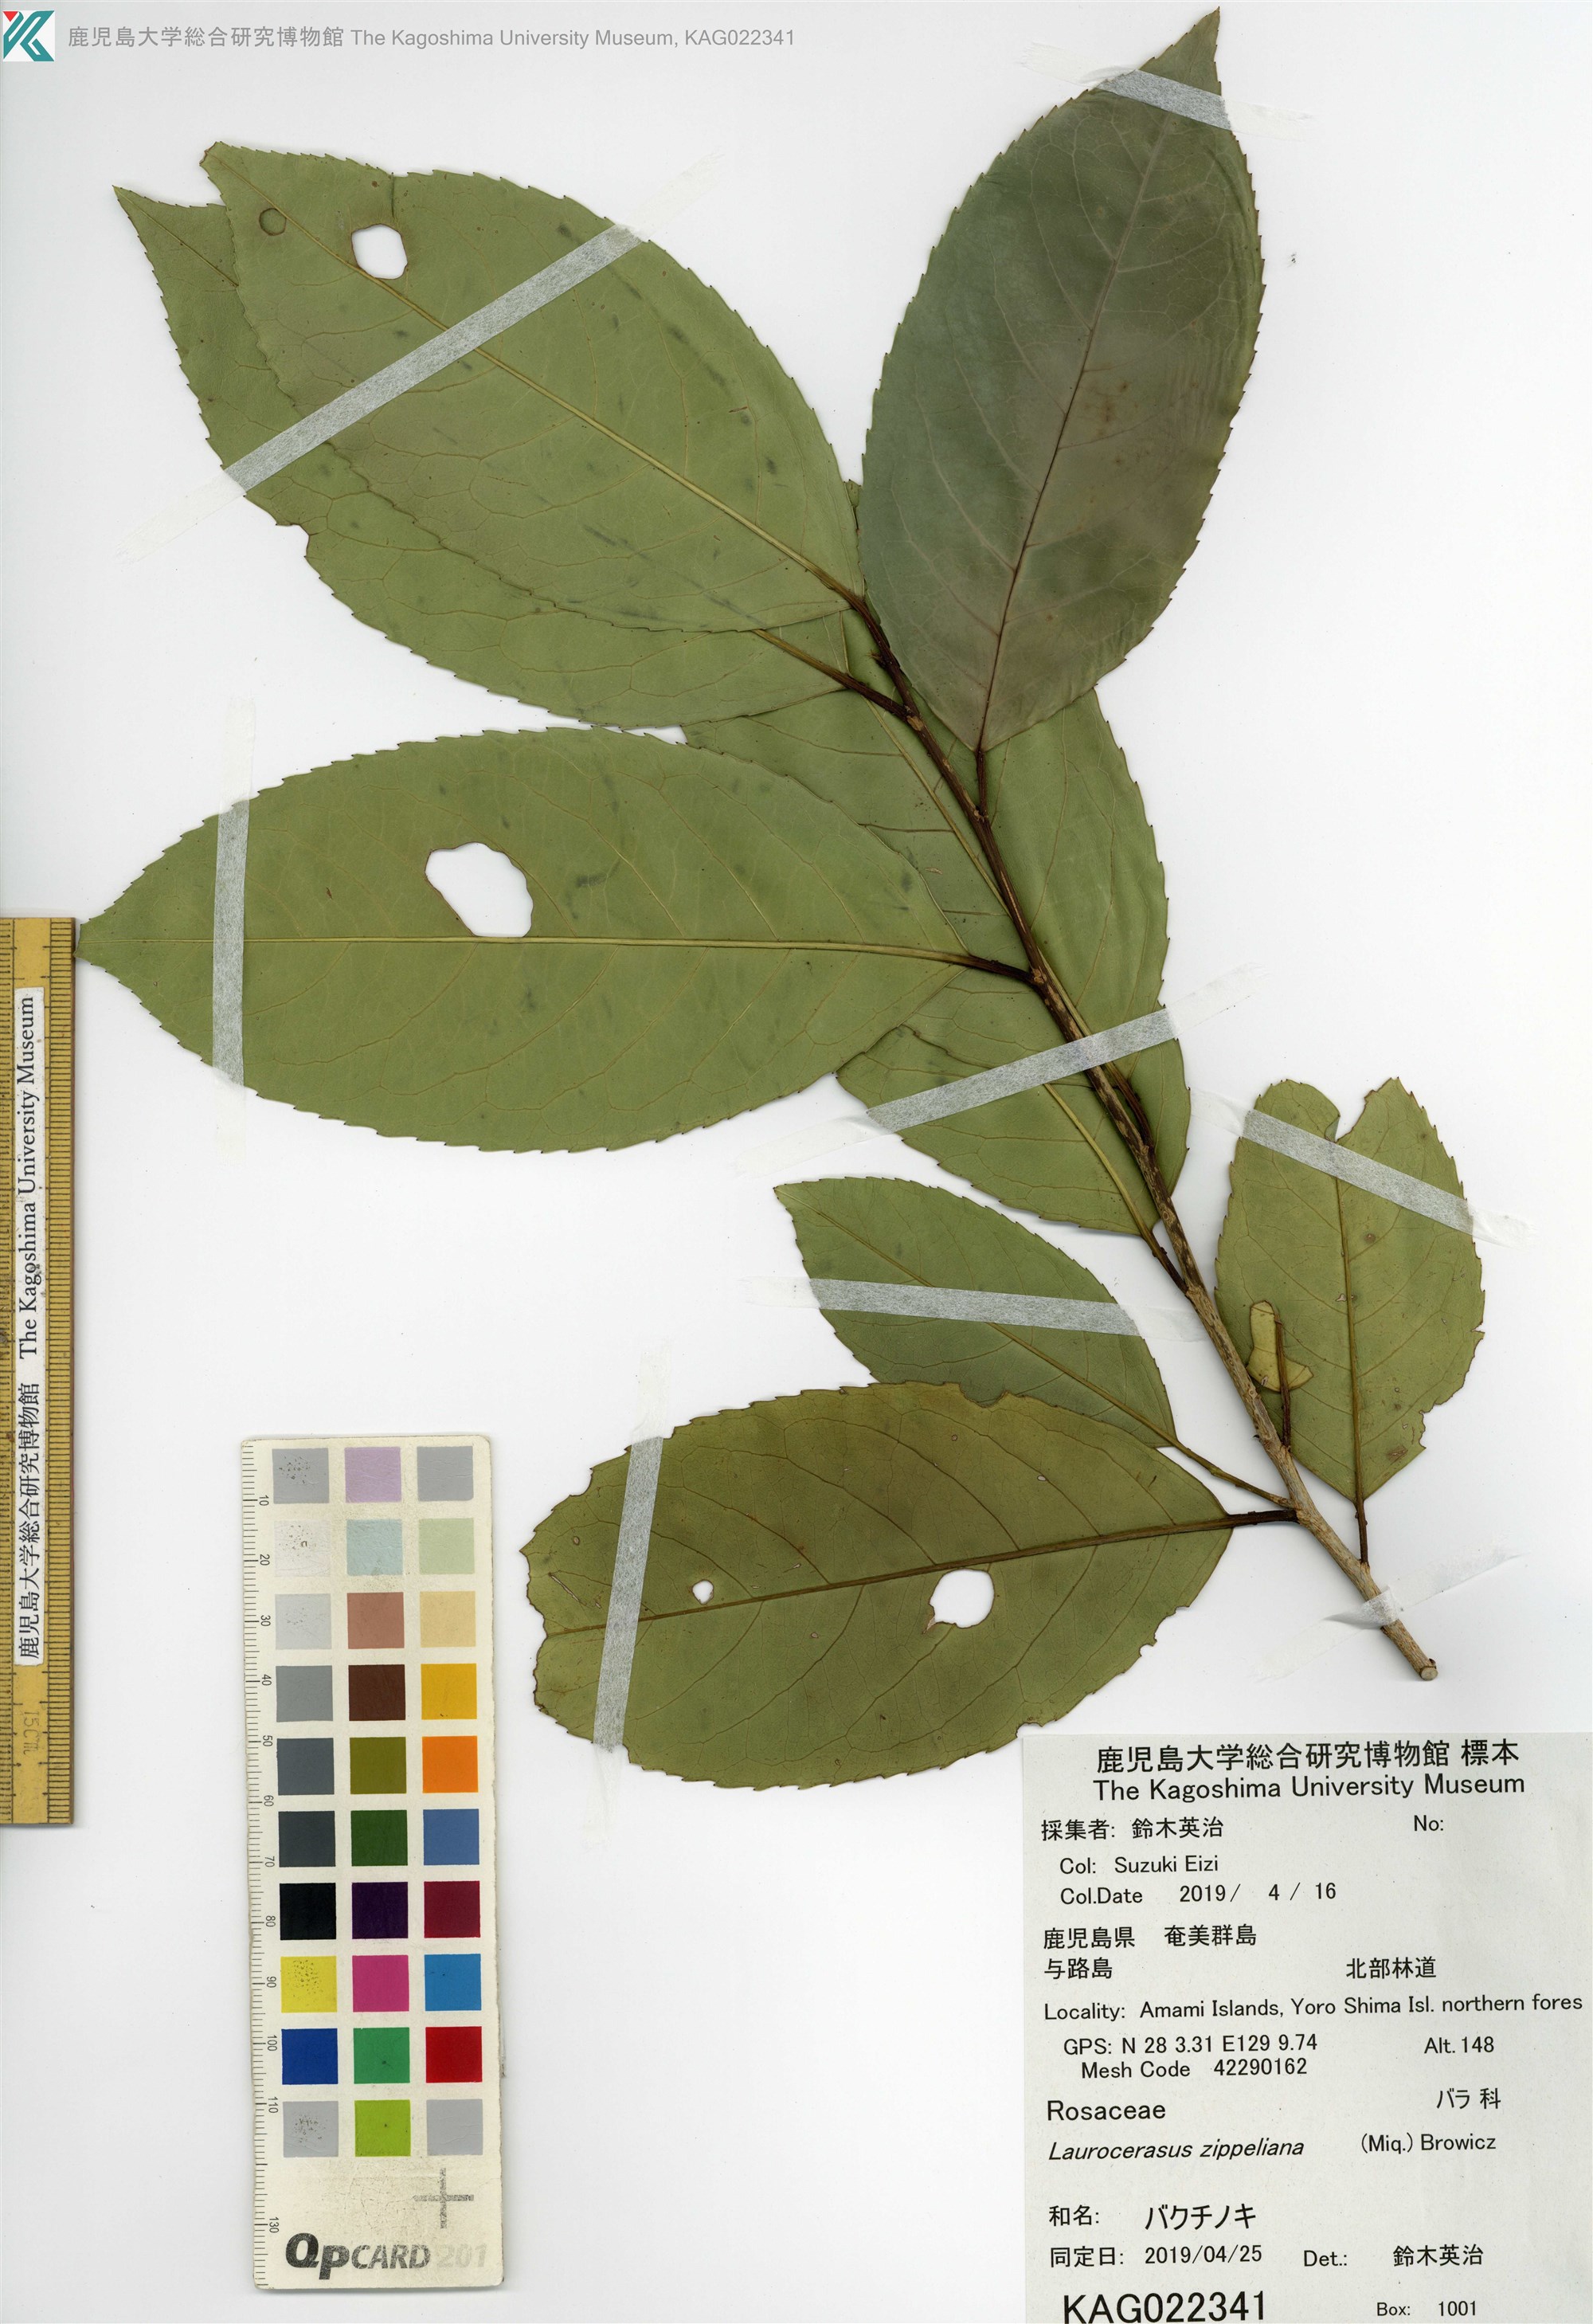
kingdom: Plantae
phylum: Tracheophyta
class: Magnoliopsida
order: Rosales
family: Rosaceae
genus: Prunus
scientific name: Prunus zippeliana
